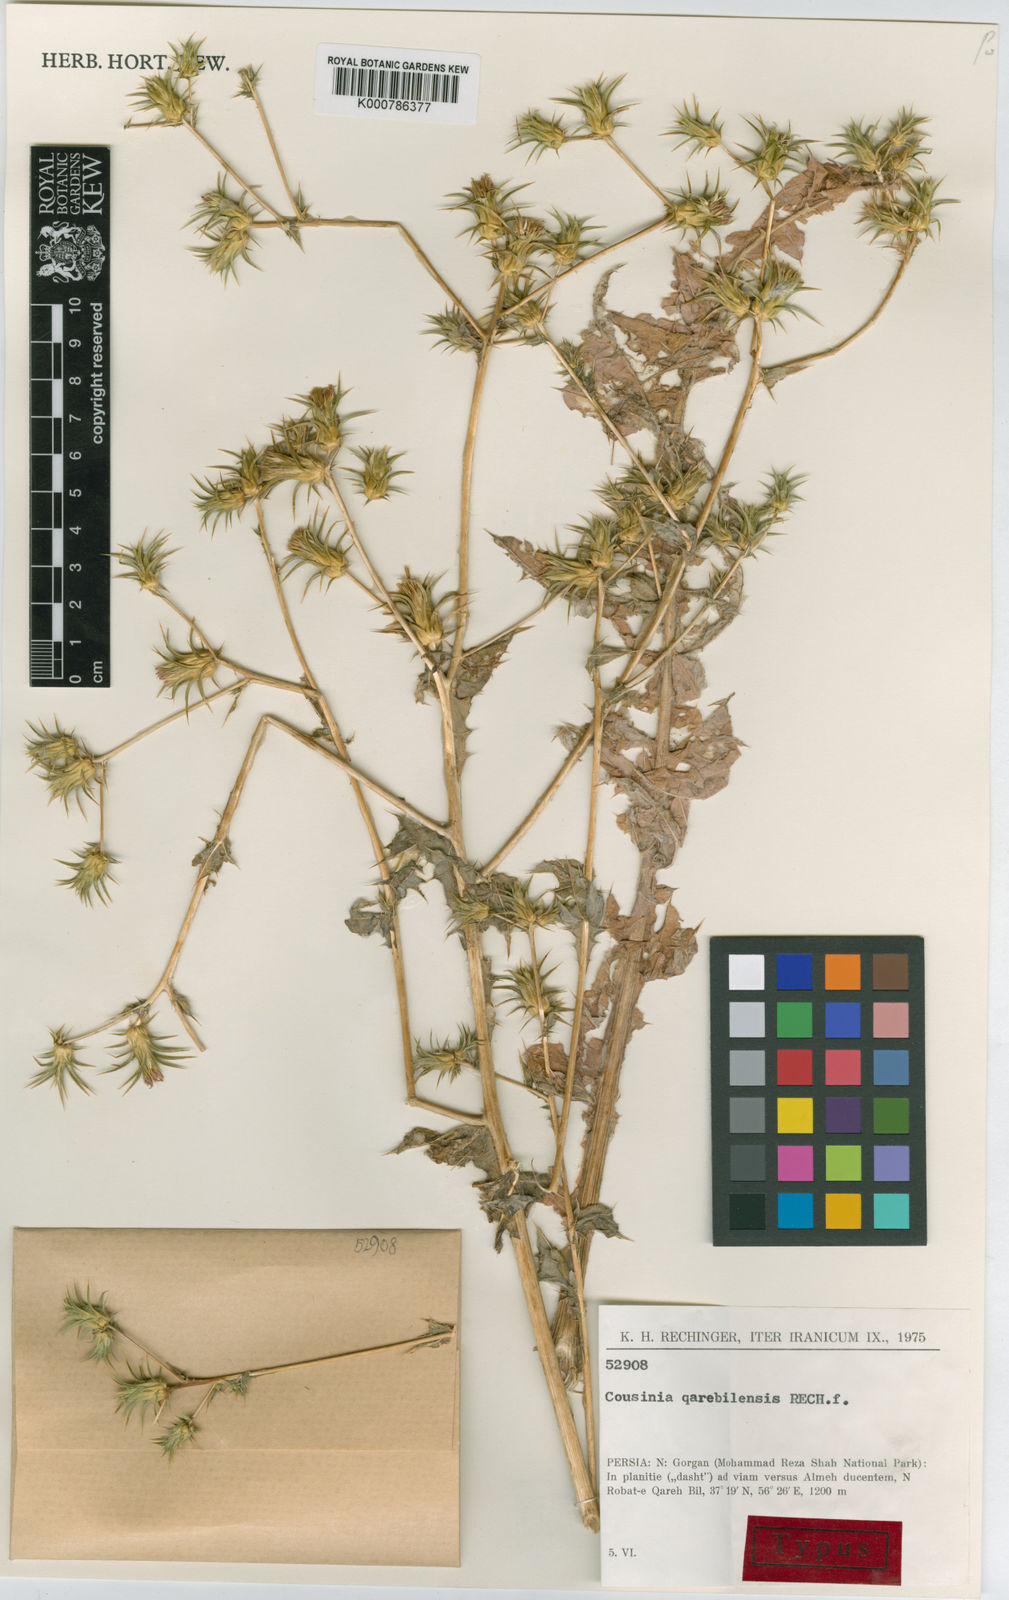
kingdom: Plantae
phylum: Tracheophyta
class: Magnoliopsida
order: Asterales
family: Asteraceae
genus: Cousinia
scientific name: Cousinia qarehbilensis
